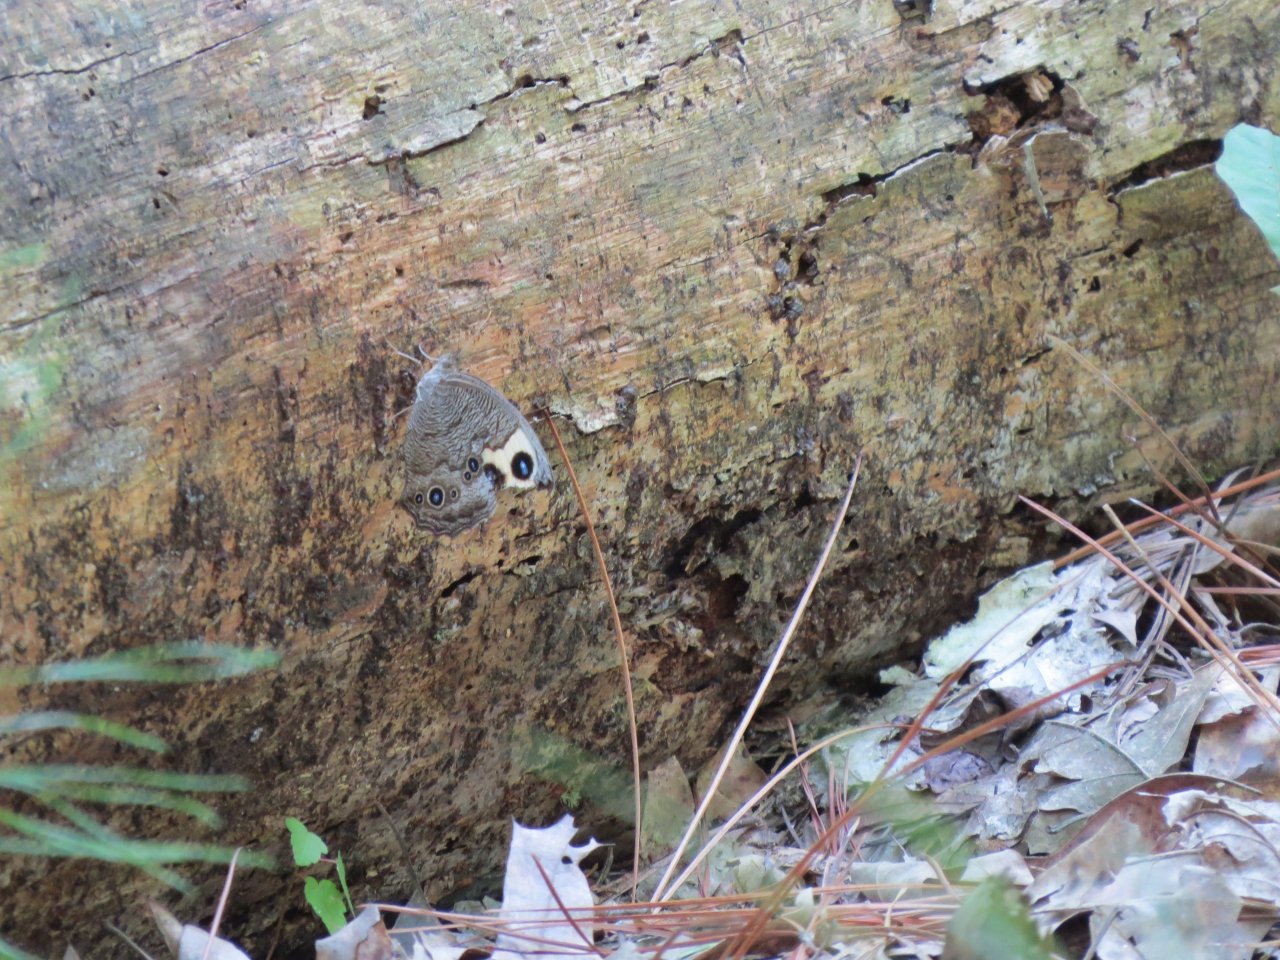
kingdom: Animalia
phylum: Arthropoda
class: Insecta
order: Lepidoptera
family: Nymphalidae
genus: Cercyonis
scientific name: Cercyonis pegala
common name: Common Wood-Nymph
